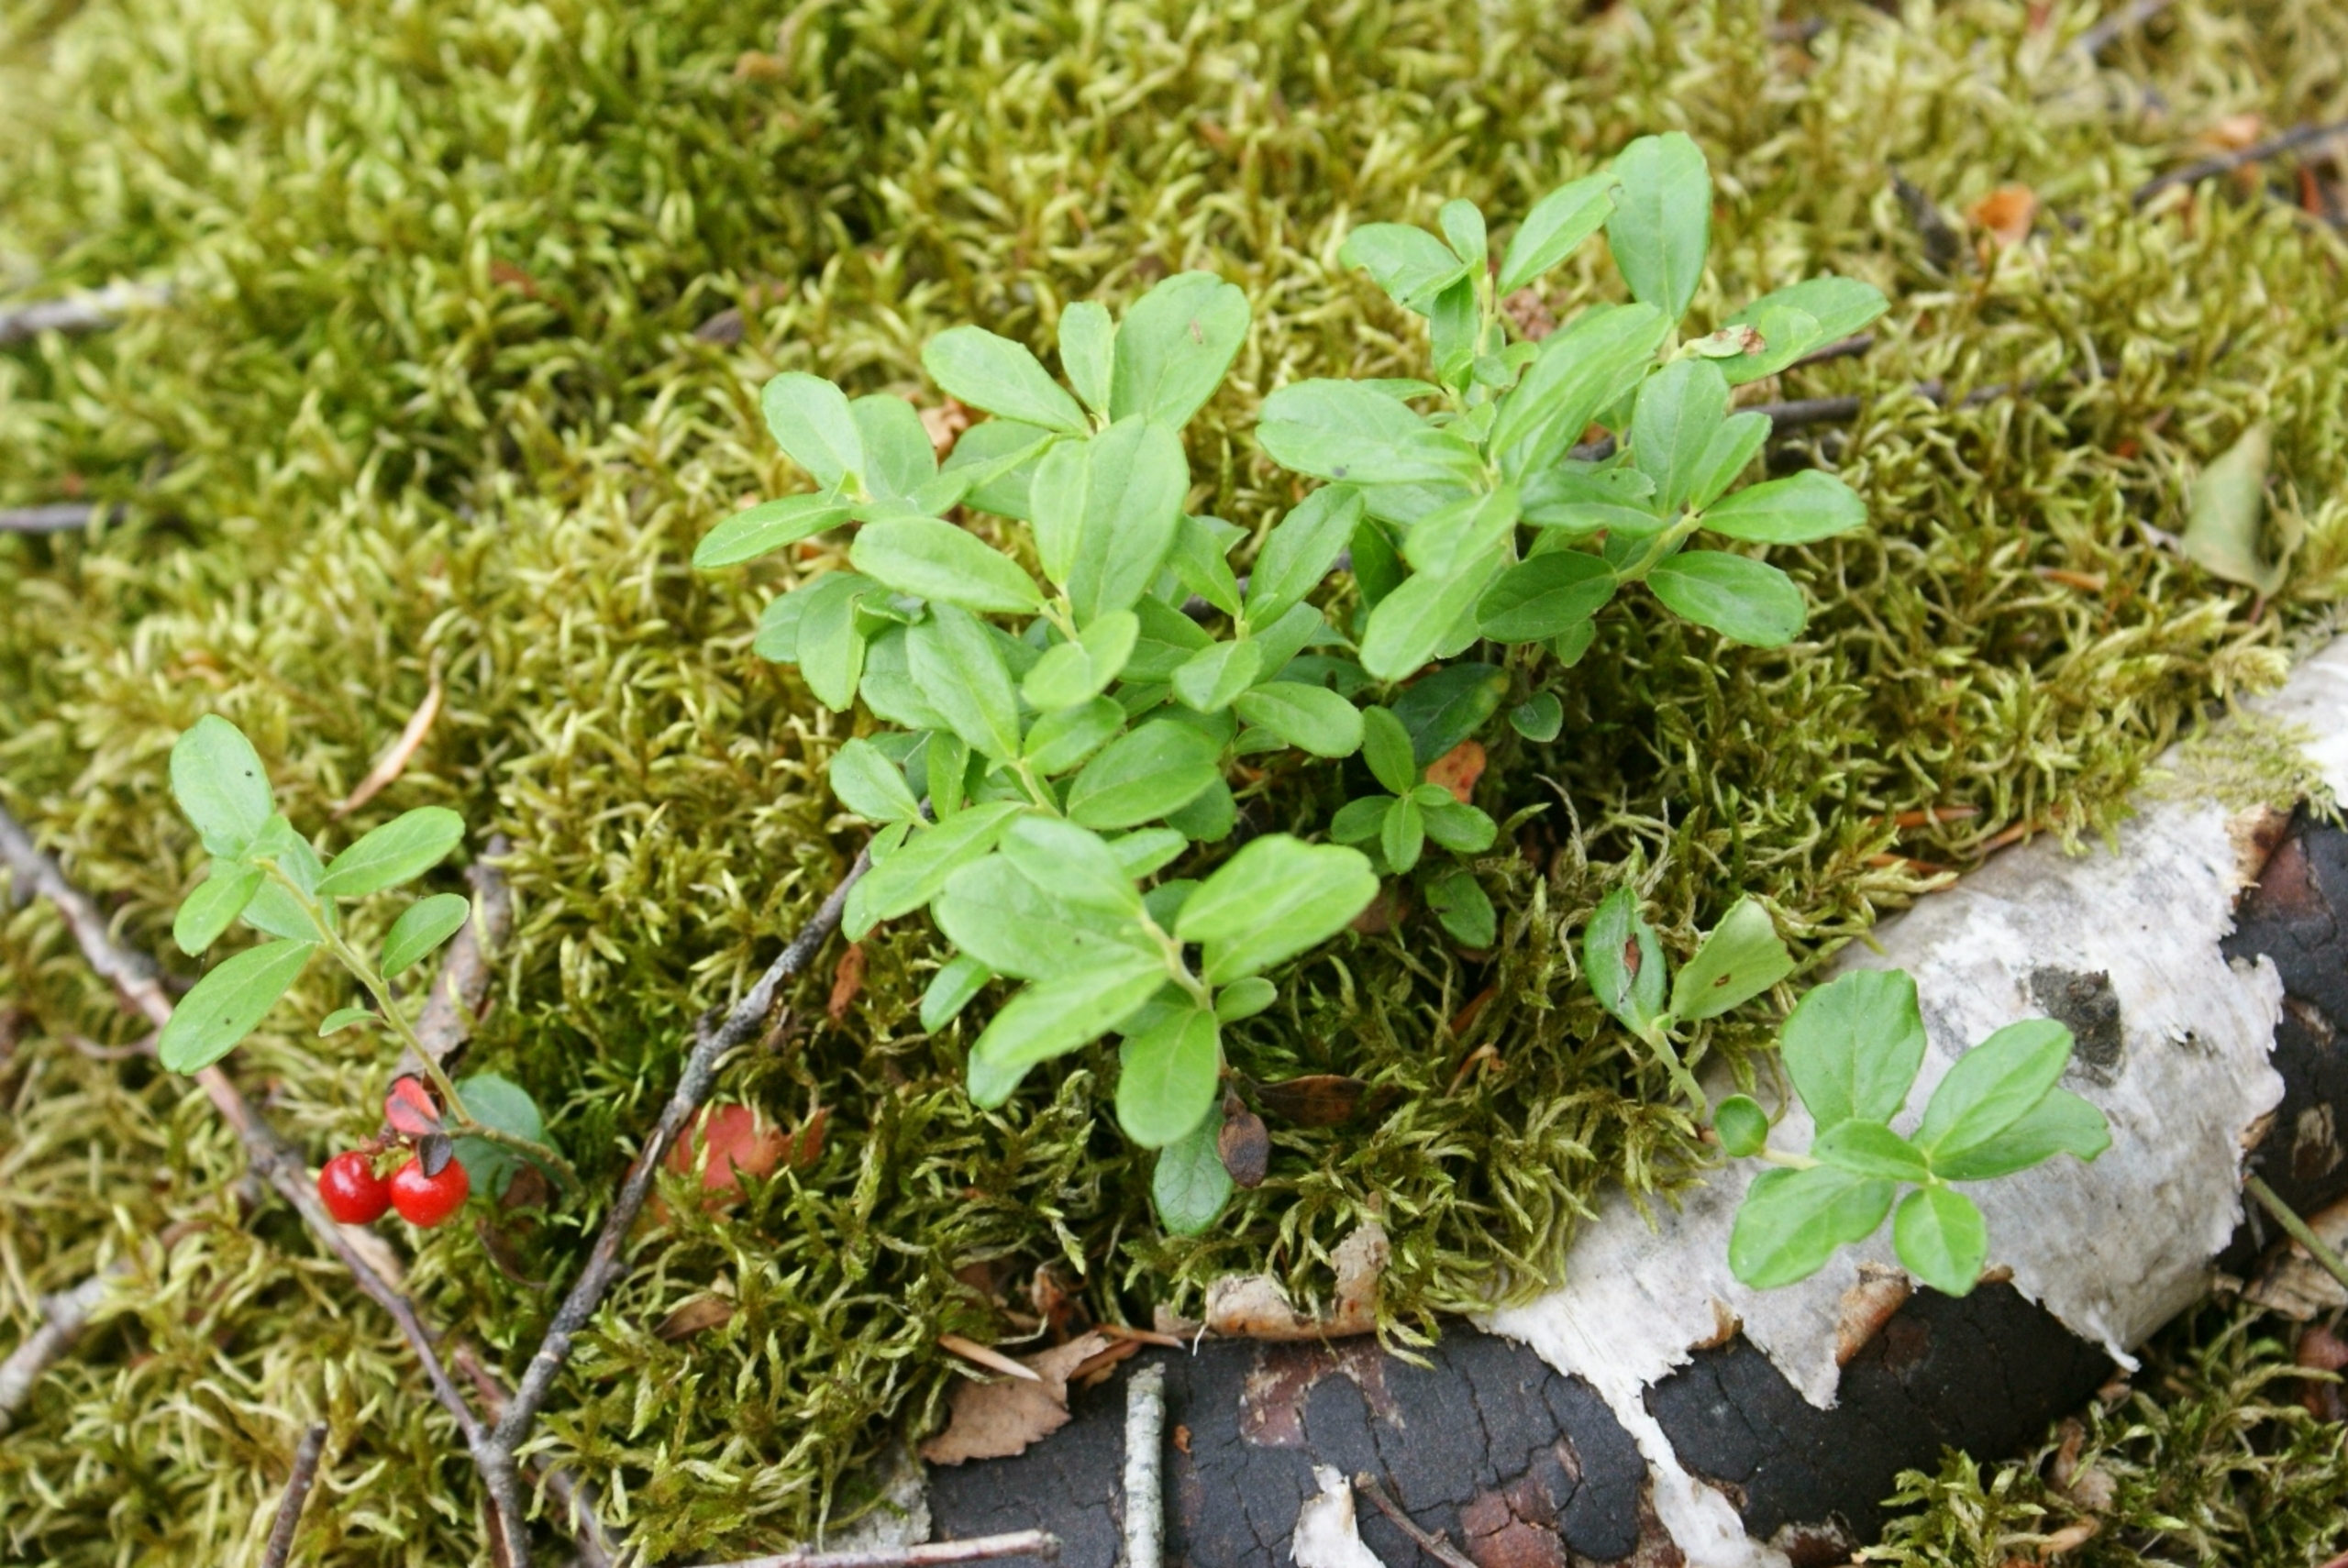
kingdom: Plantae
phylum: Tracheophyta
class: Magnoliopsida
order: Ericales
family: Ericaceae
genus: Vaccinium
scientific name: Vaccinium vitis-idaea
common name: Tyttebær
